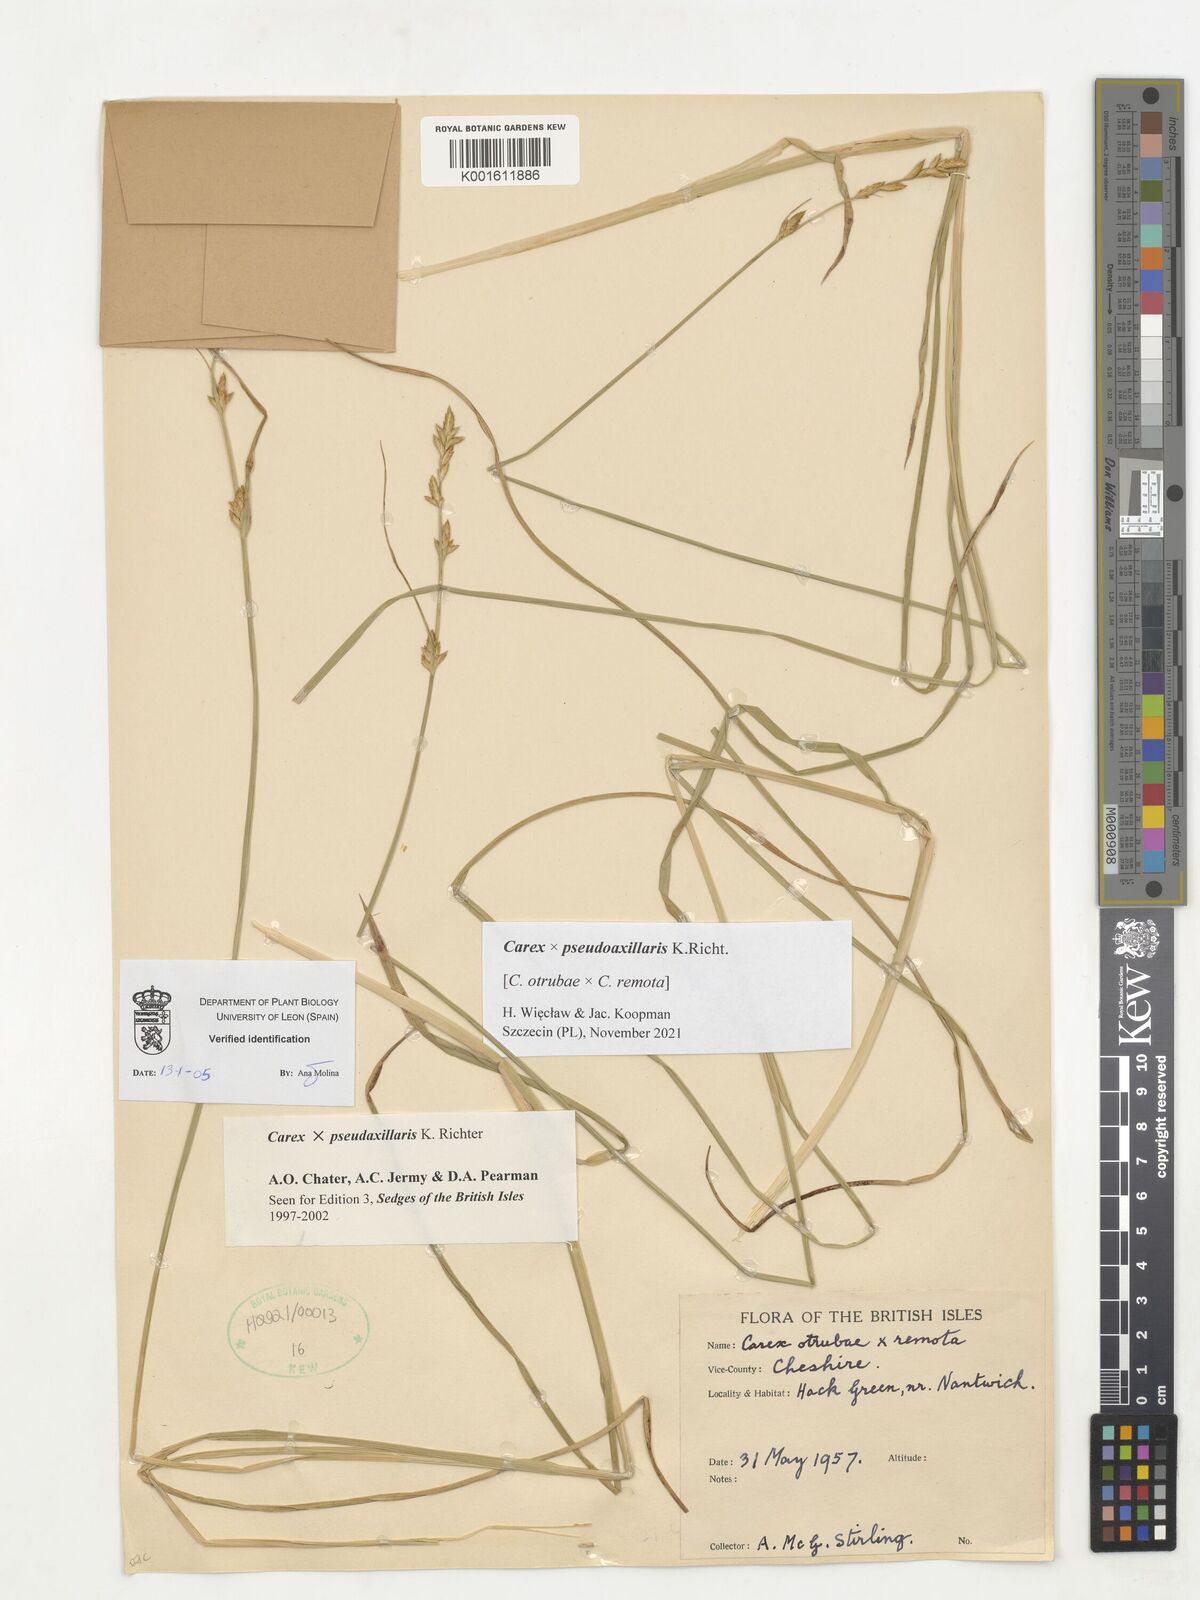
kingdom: Plantae
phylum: Tracheophyta
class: Liliopsida
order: Poales
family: Cyperaceae
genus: Carex
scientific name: Carex pseudoaxillaris
